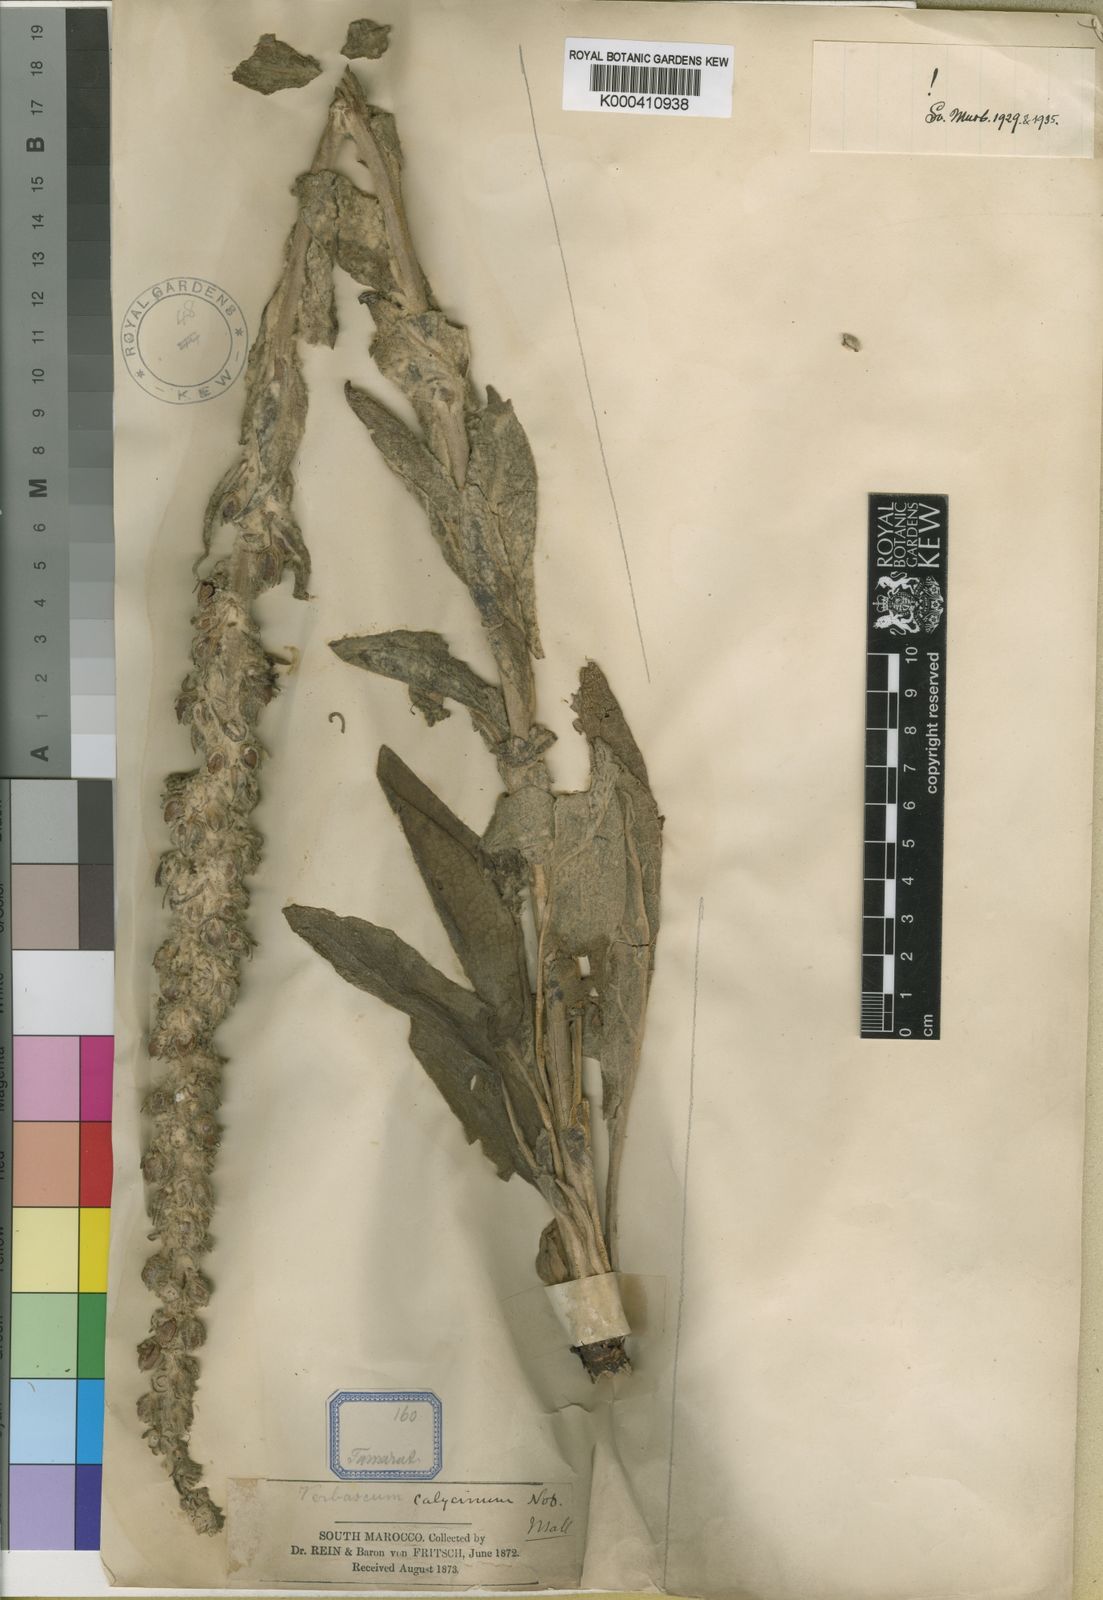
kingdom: Plantae
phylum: Tracheophyta
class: Magnoliopsida
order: Lamiales
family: Scrophulariaceae
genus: Verbascum
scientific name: Verbascum calycinum
